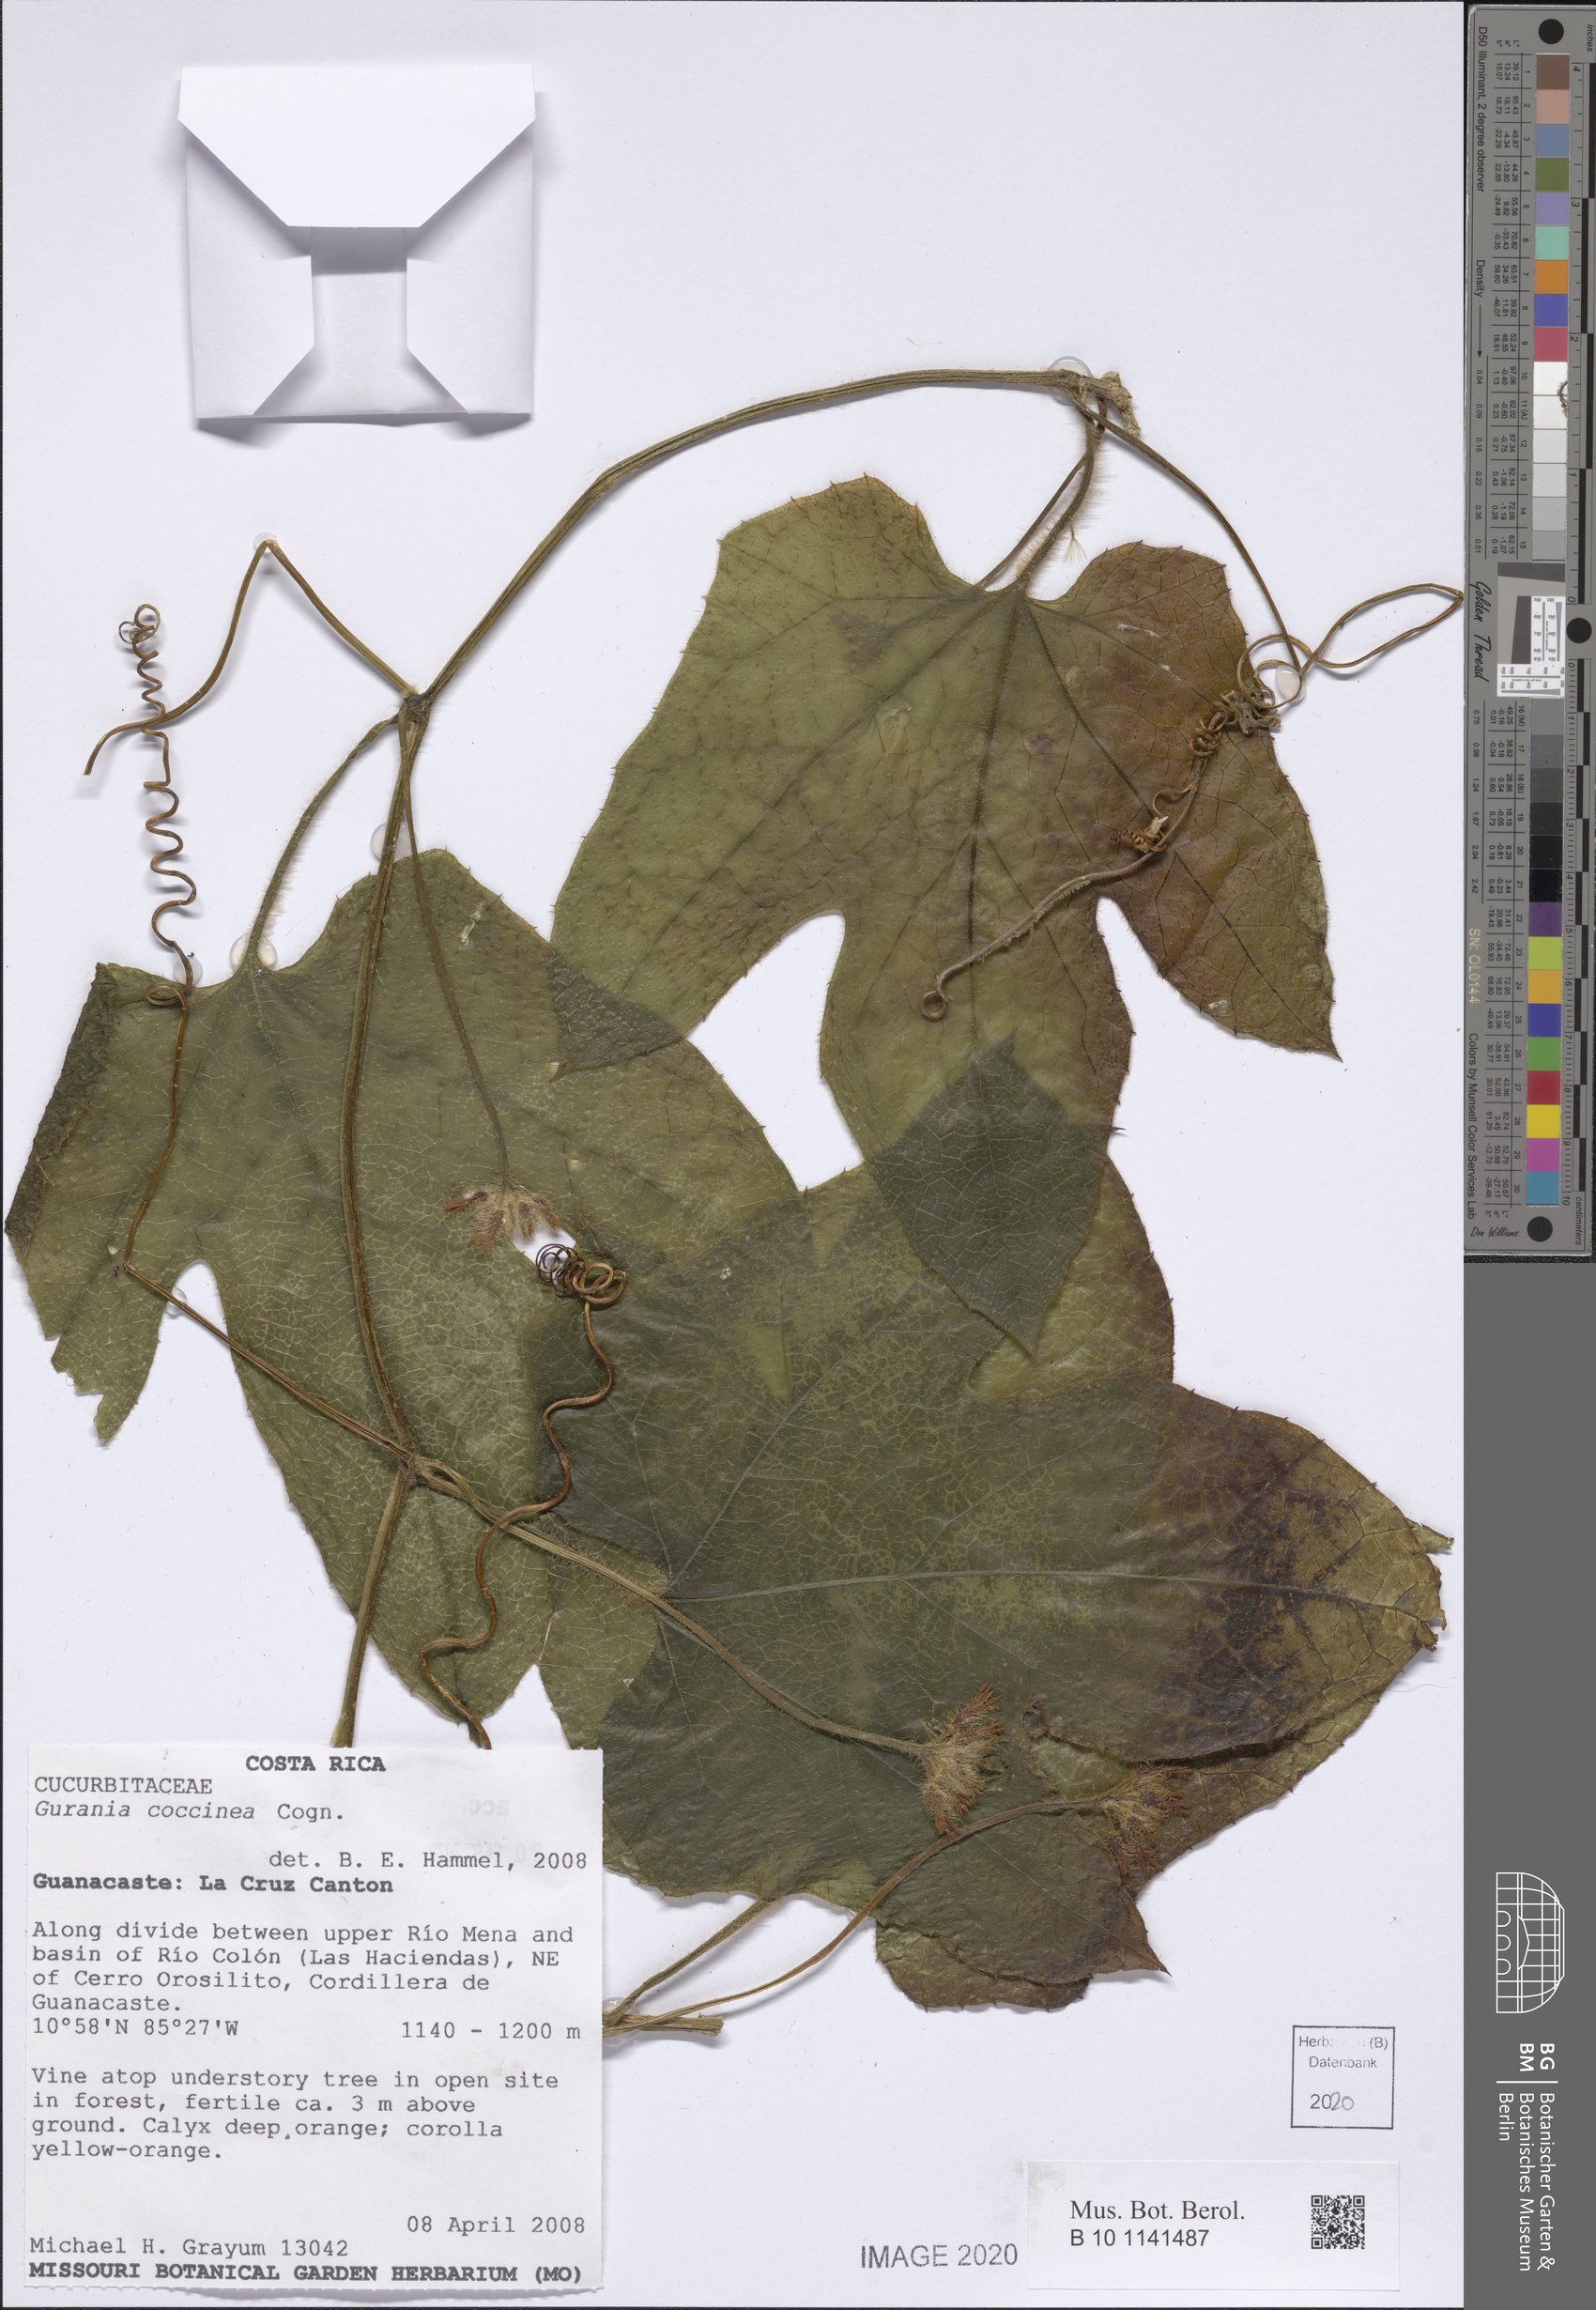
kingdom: Plantae
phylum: Tracheophyta
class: Magnoliopsida
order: Cucurbitales
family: Cucurbitaceae
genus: Gurania
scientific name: Gurania bignoniacea
